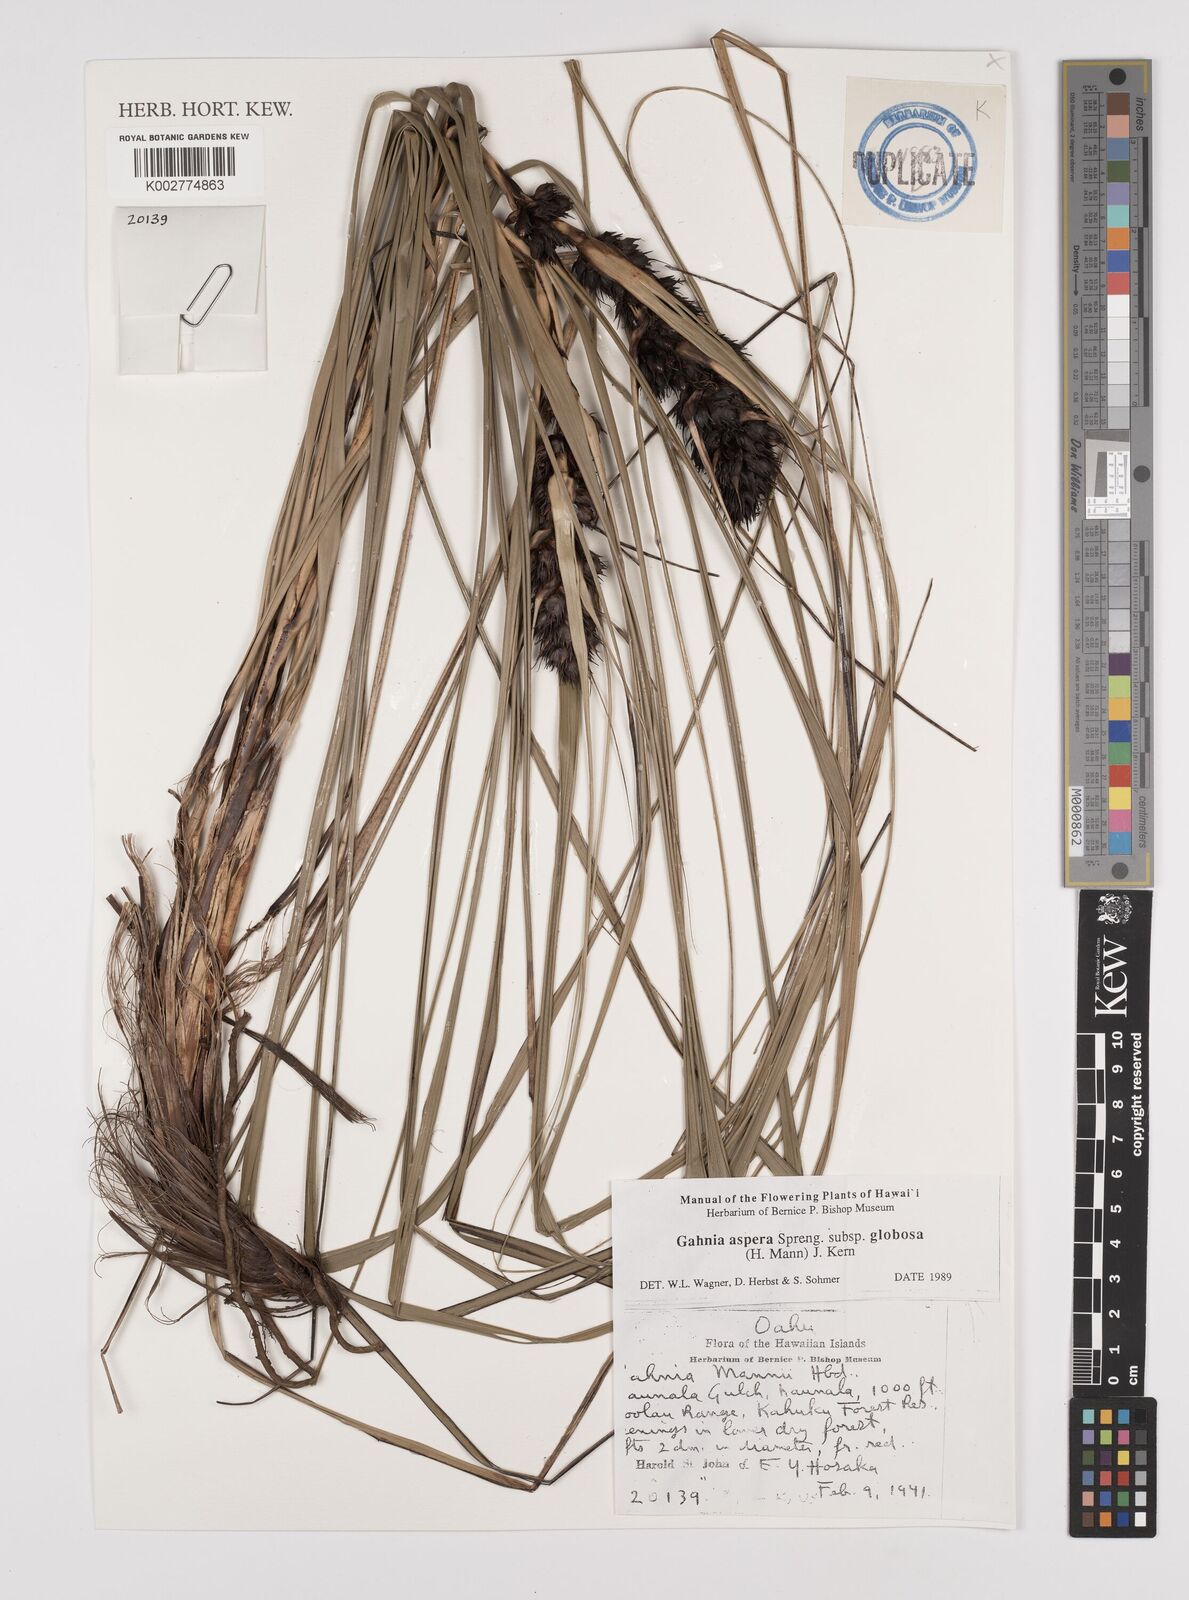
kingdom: Plantae
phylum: Tracheophyta
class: Liliopsida
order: Poales
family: Cyperaceae
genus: Gahnia
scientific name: Gahnia aspera
